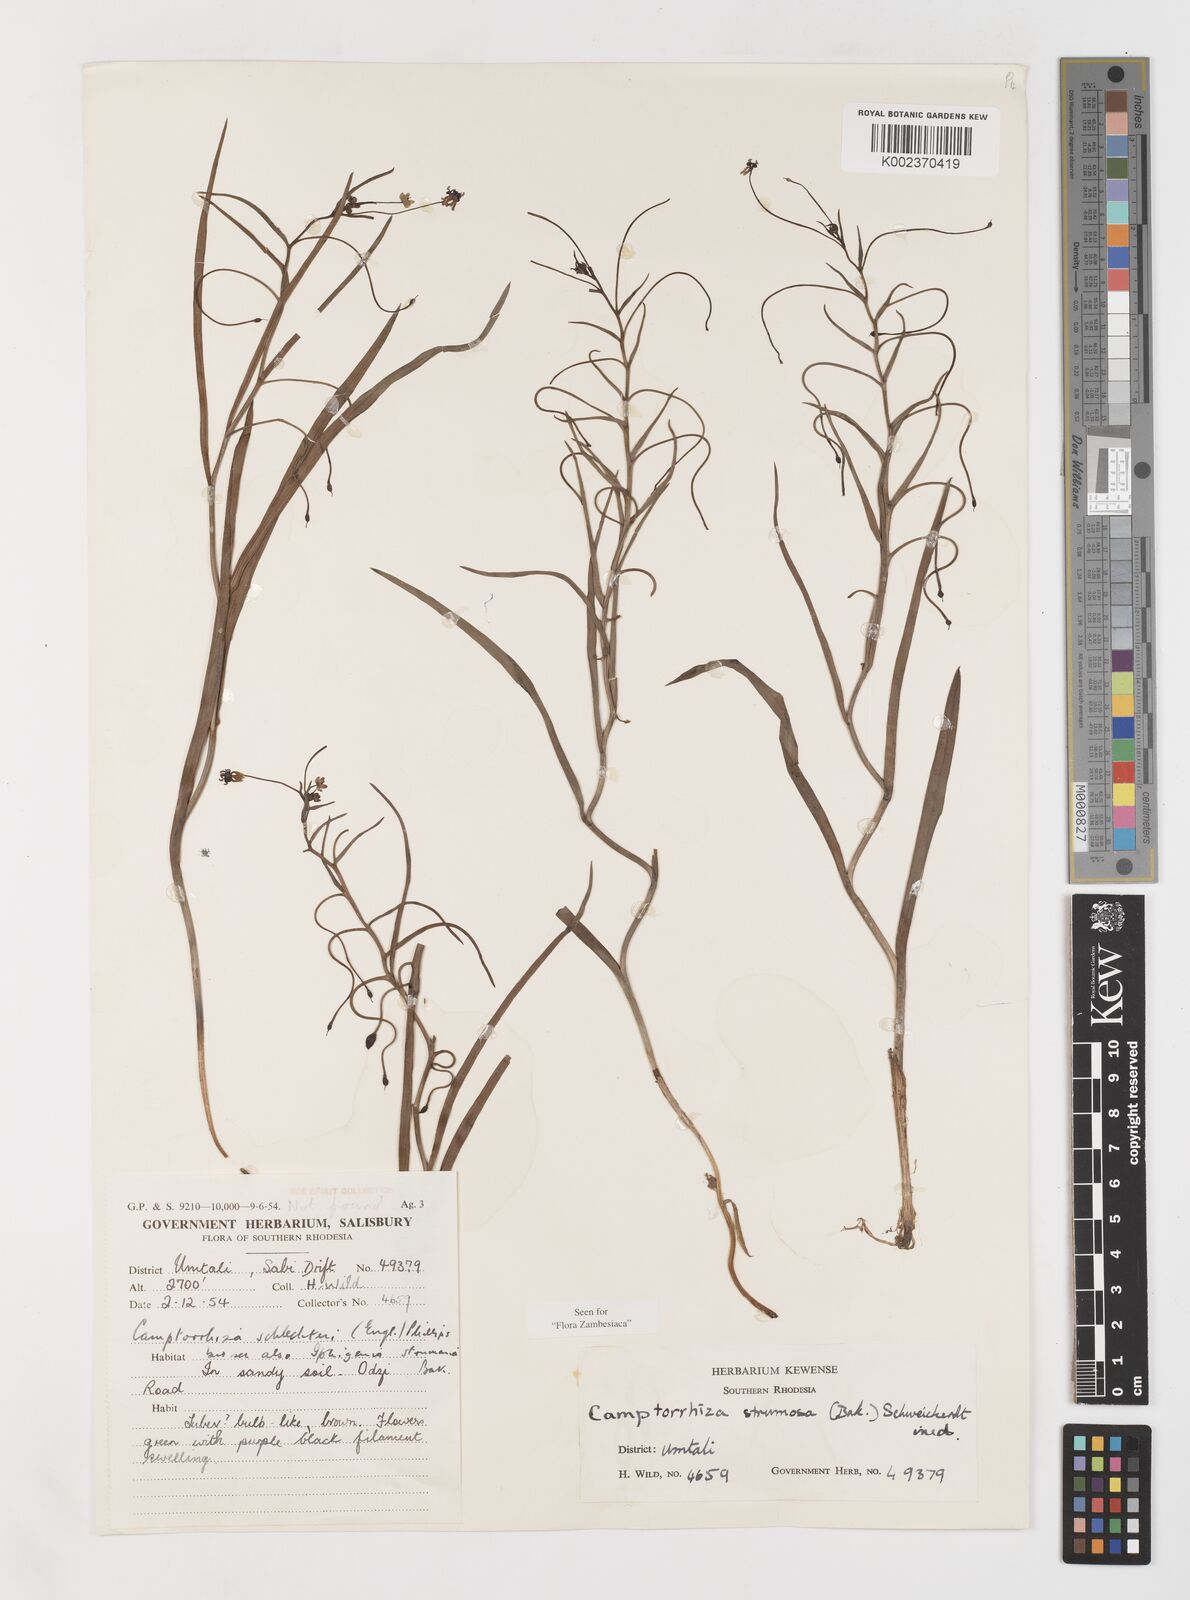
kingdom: Plantae
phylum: Tracheophyta
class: Liliopsida
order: Liliales
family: Colchicaceae
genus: Camptorrhiza
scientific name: Camptorrhiza strumosa
